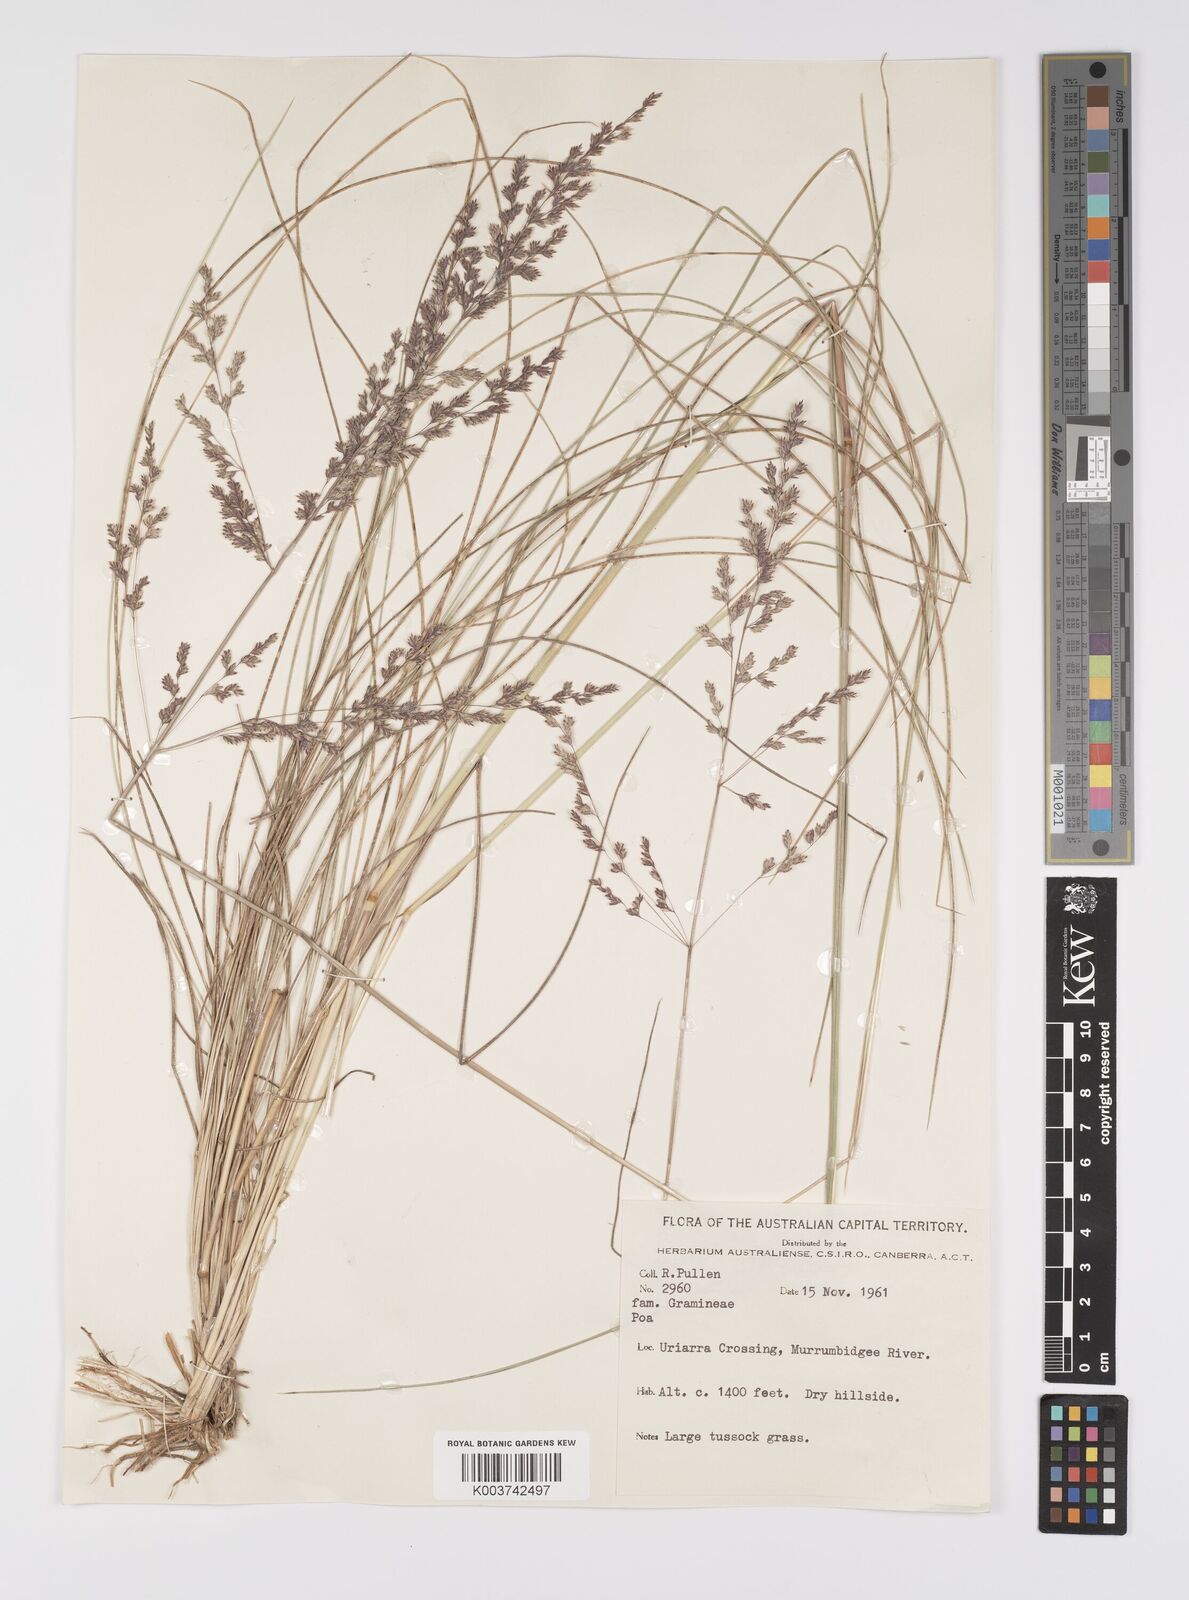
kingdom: Plantae
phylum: Tracheophyta
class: Liliopsida
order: Poales
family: Poaceae
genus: Poa
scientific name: Poa
